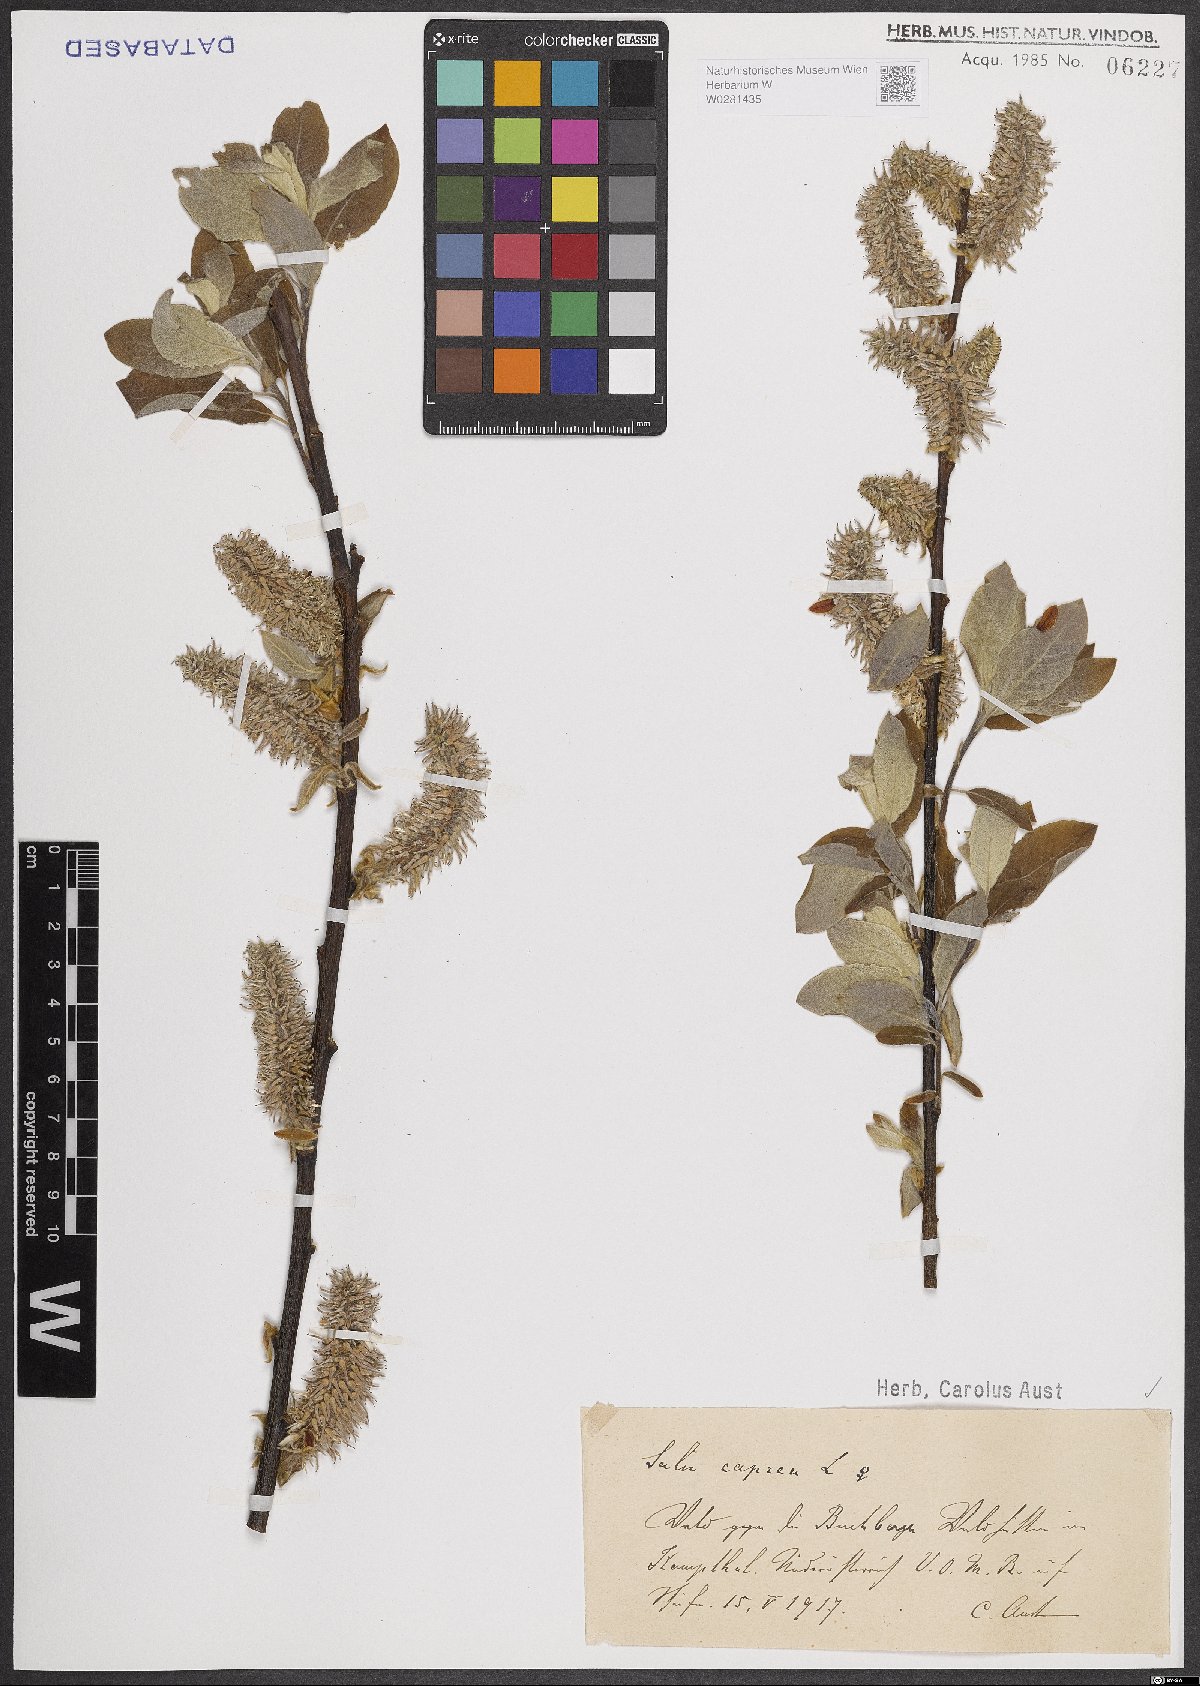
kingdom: Plantae
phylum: Tracheophyta
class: Magnoliopsida
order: Malpighiales
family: Salicaceae
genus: Salix
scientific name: Salix caprea
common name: Goat willow
